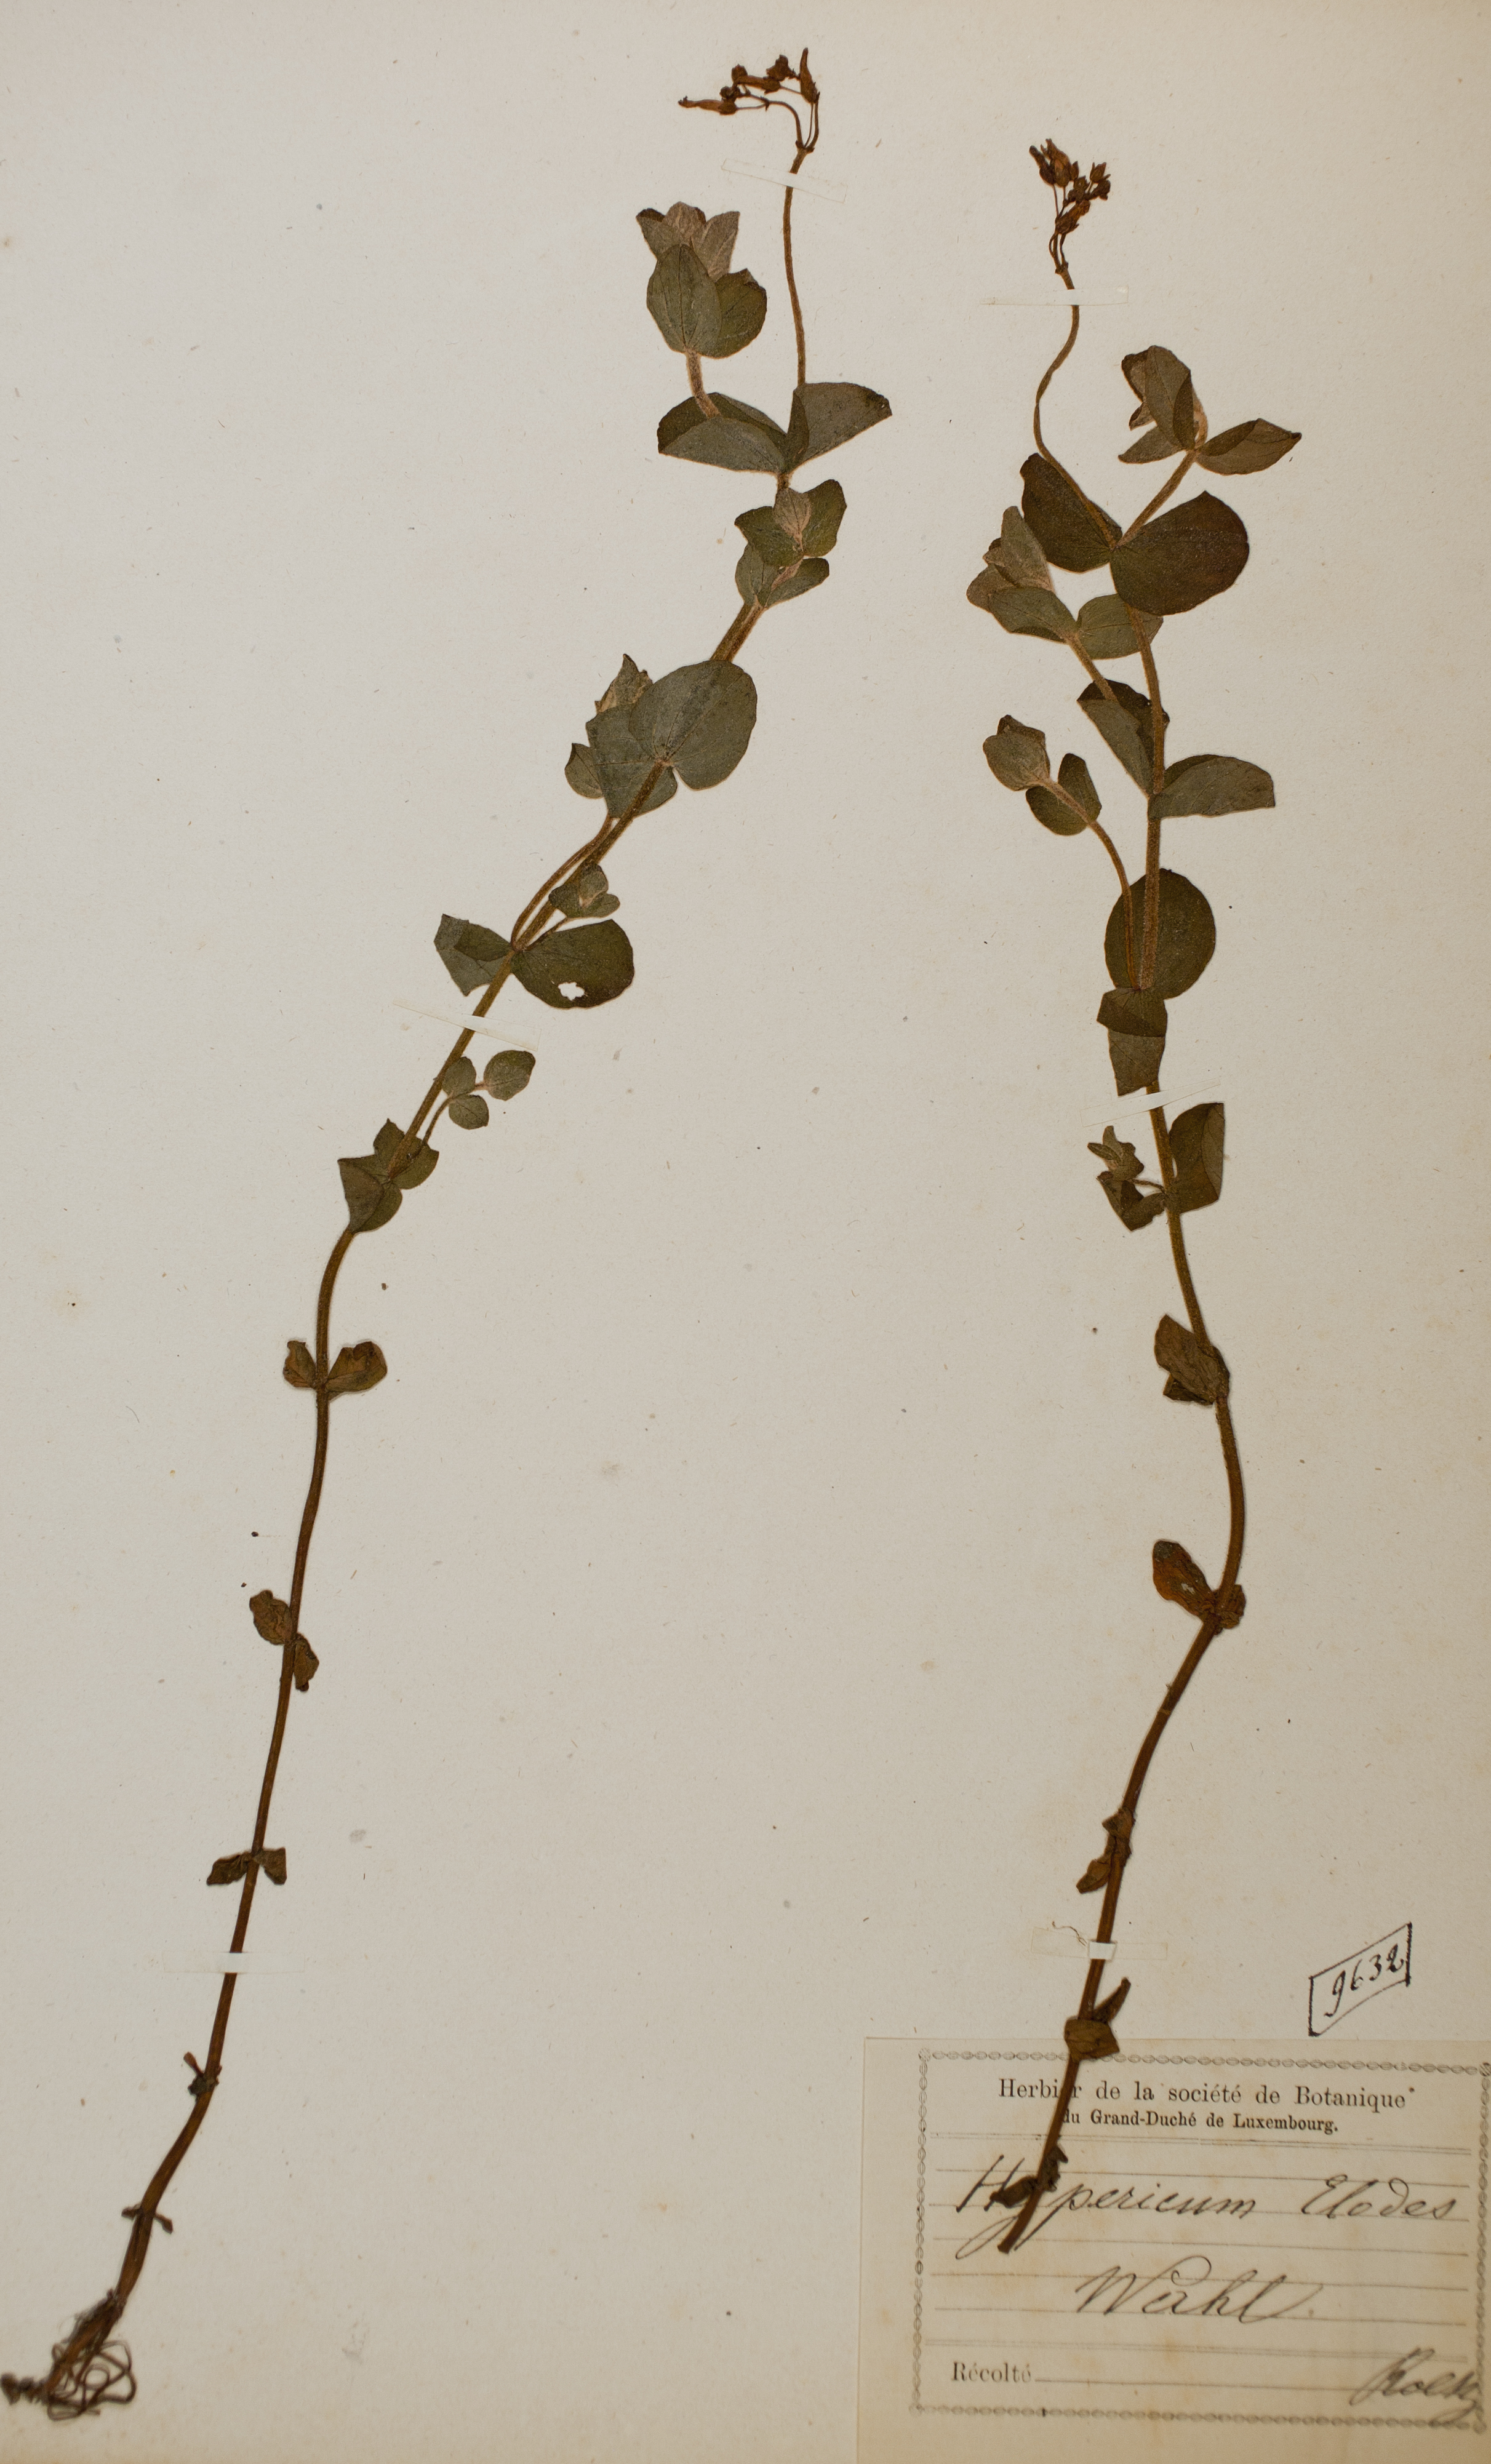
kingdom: Plantae
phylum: Tracheophyta
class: Magnoliopsida
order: Malpighiales
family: Hypericaceae
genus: Hypericum
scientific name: Hypericum elodes
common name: Marsh st. john's-wort
